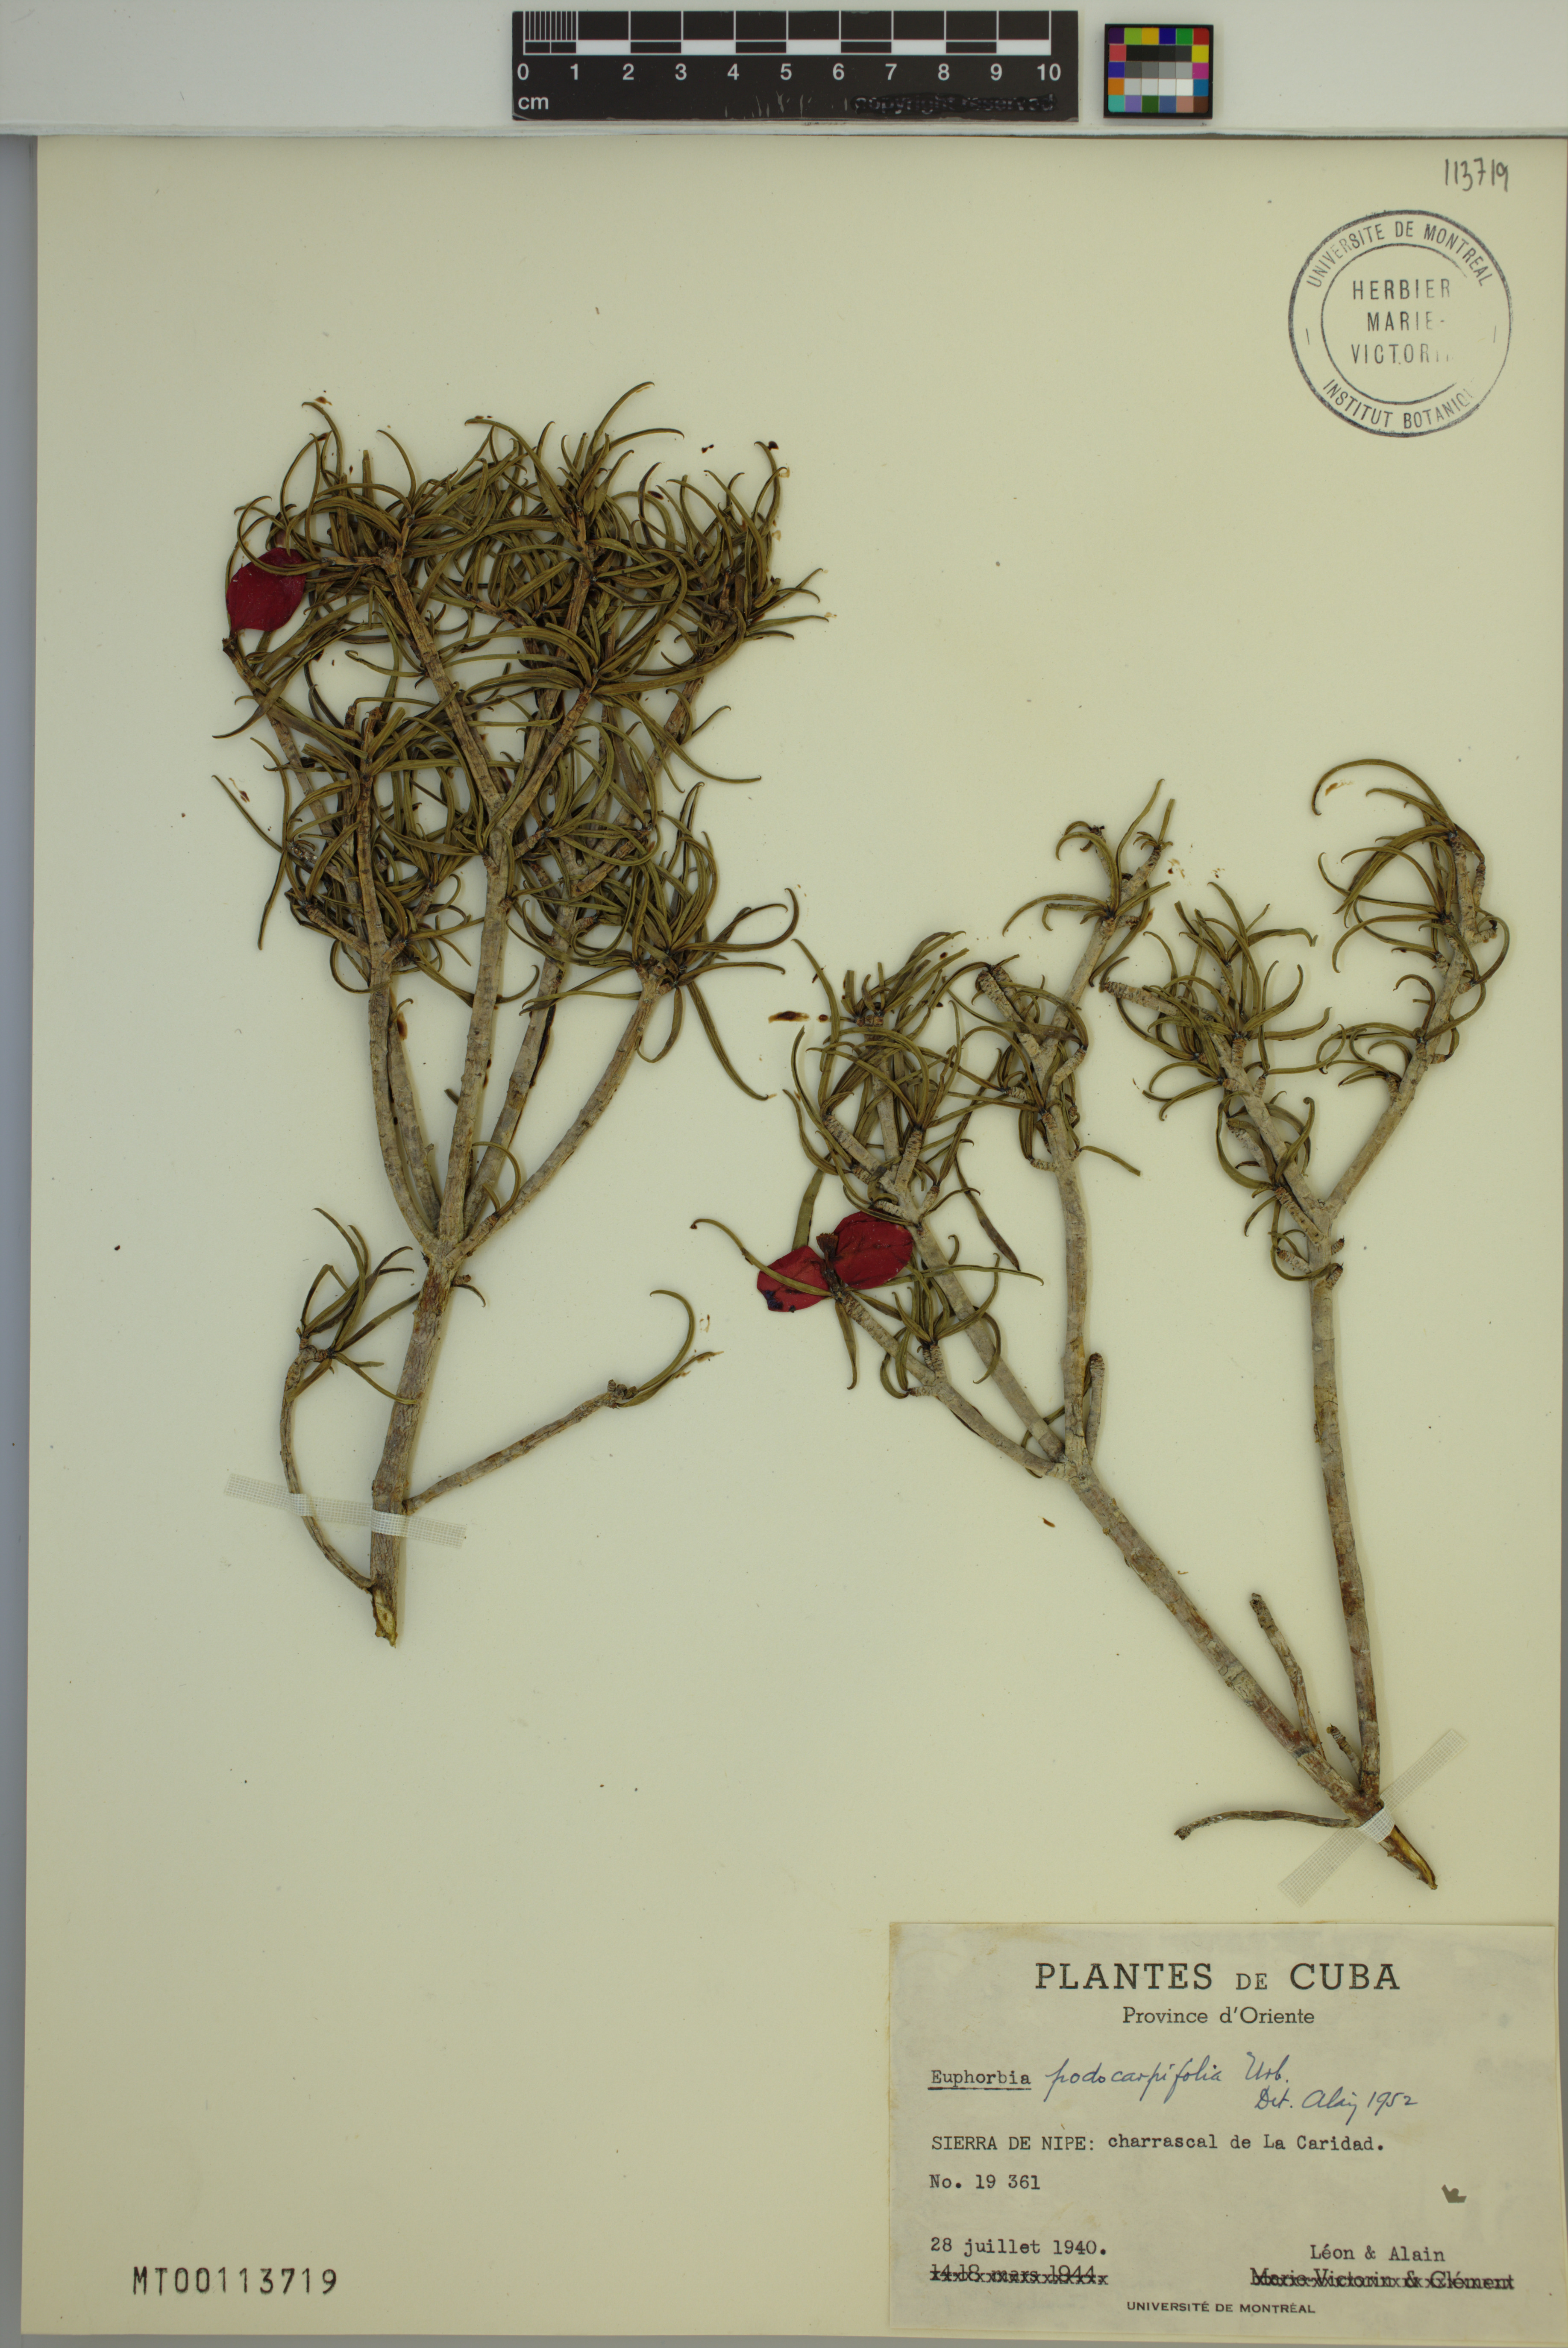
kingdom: Plantae
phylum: Tracheophyta
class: Magnoliopsida
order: Malpighiales
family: Euphorbiaceae
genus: Euphorbia
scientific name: Euphorbia podocarpifolia
